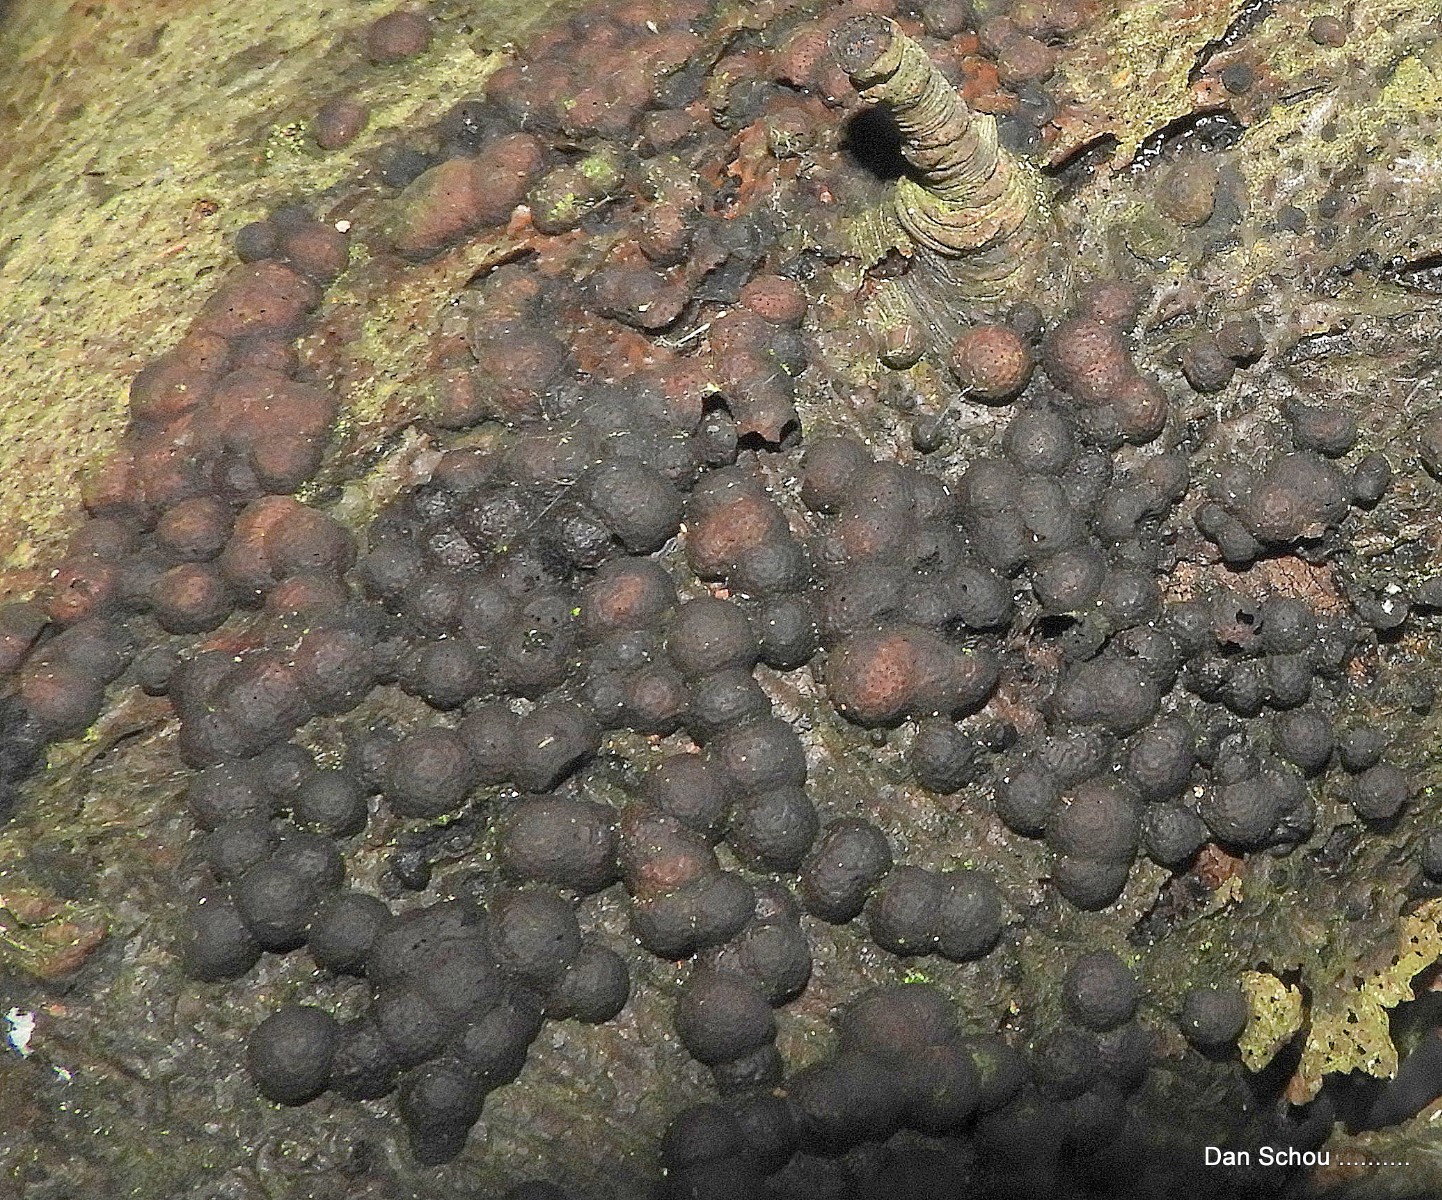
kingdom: Fungi
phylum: Ascomycota
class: Sordariomycetes
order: Xylariales
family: Hypoxylaceae
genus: Hypoxylon
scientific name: Hypoxylon fragiforme
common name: kuljordbær
